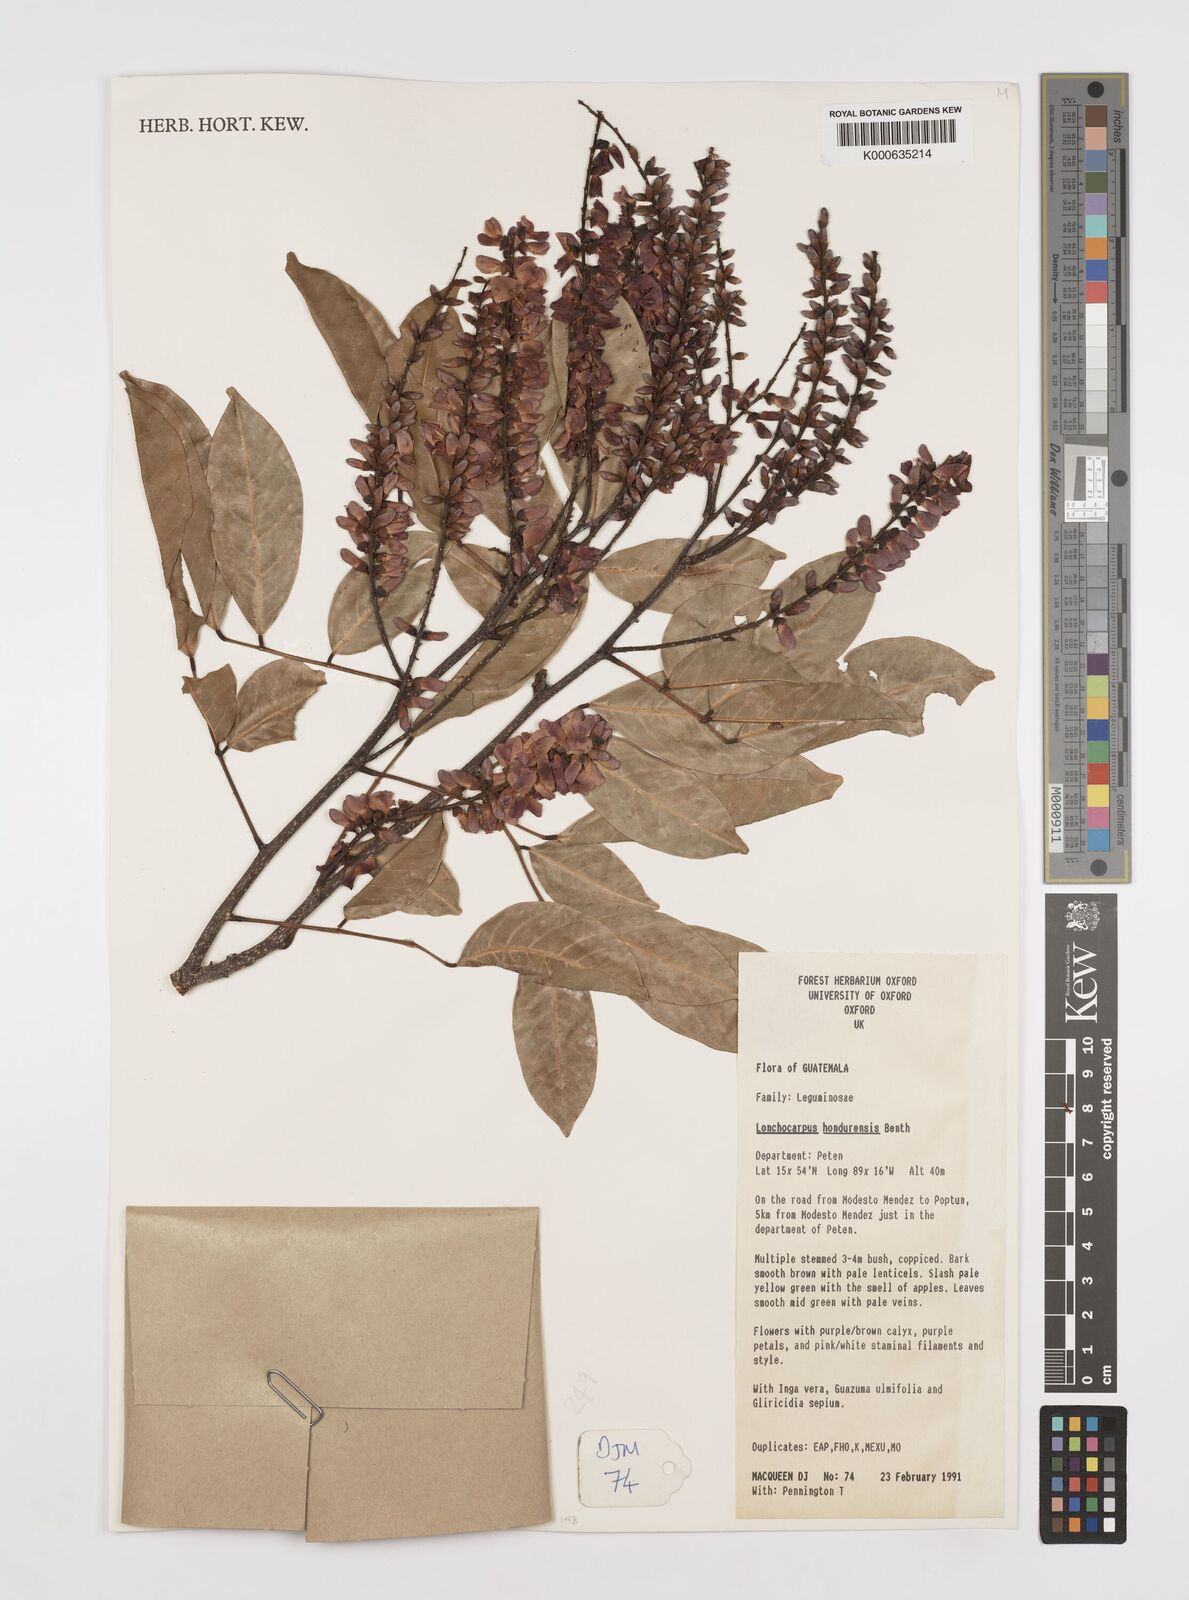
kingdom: Plantae
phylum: Tracheophyta
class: Magnoliopsida
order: Fabales
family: Fabaceae
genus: Lonchocarpus
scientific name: Lonchocarpus hondurensis
